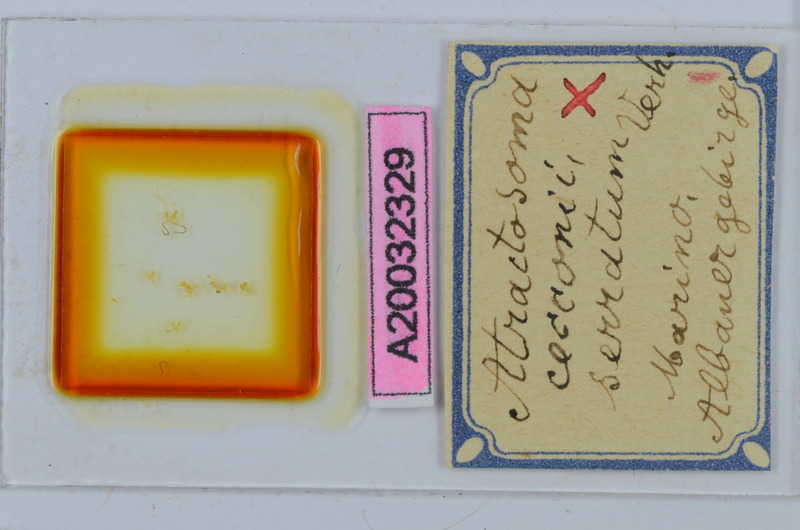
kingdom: Animalia
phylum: Arthropoda
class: Diplopoda
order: Chordeumatida
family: Craspedosomatidae
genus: Atractosoma
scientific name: Atractosoma cecconii
